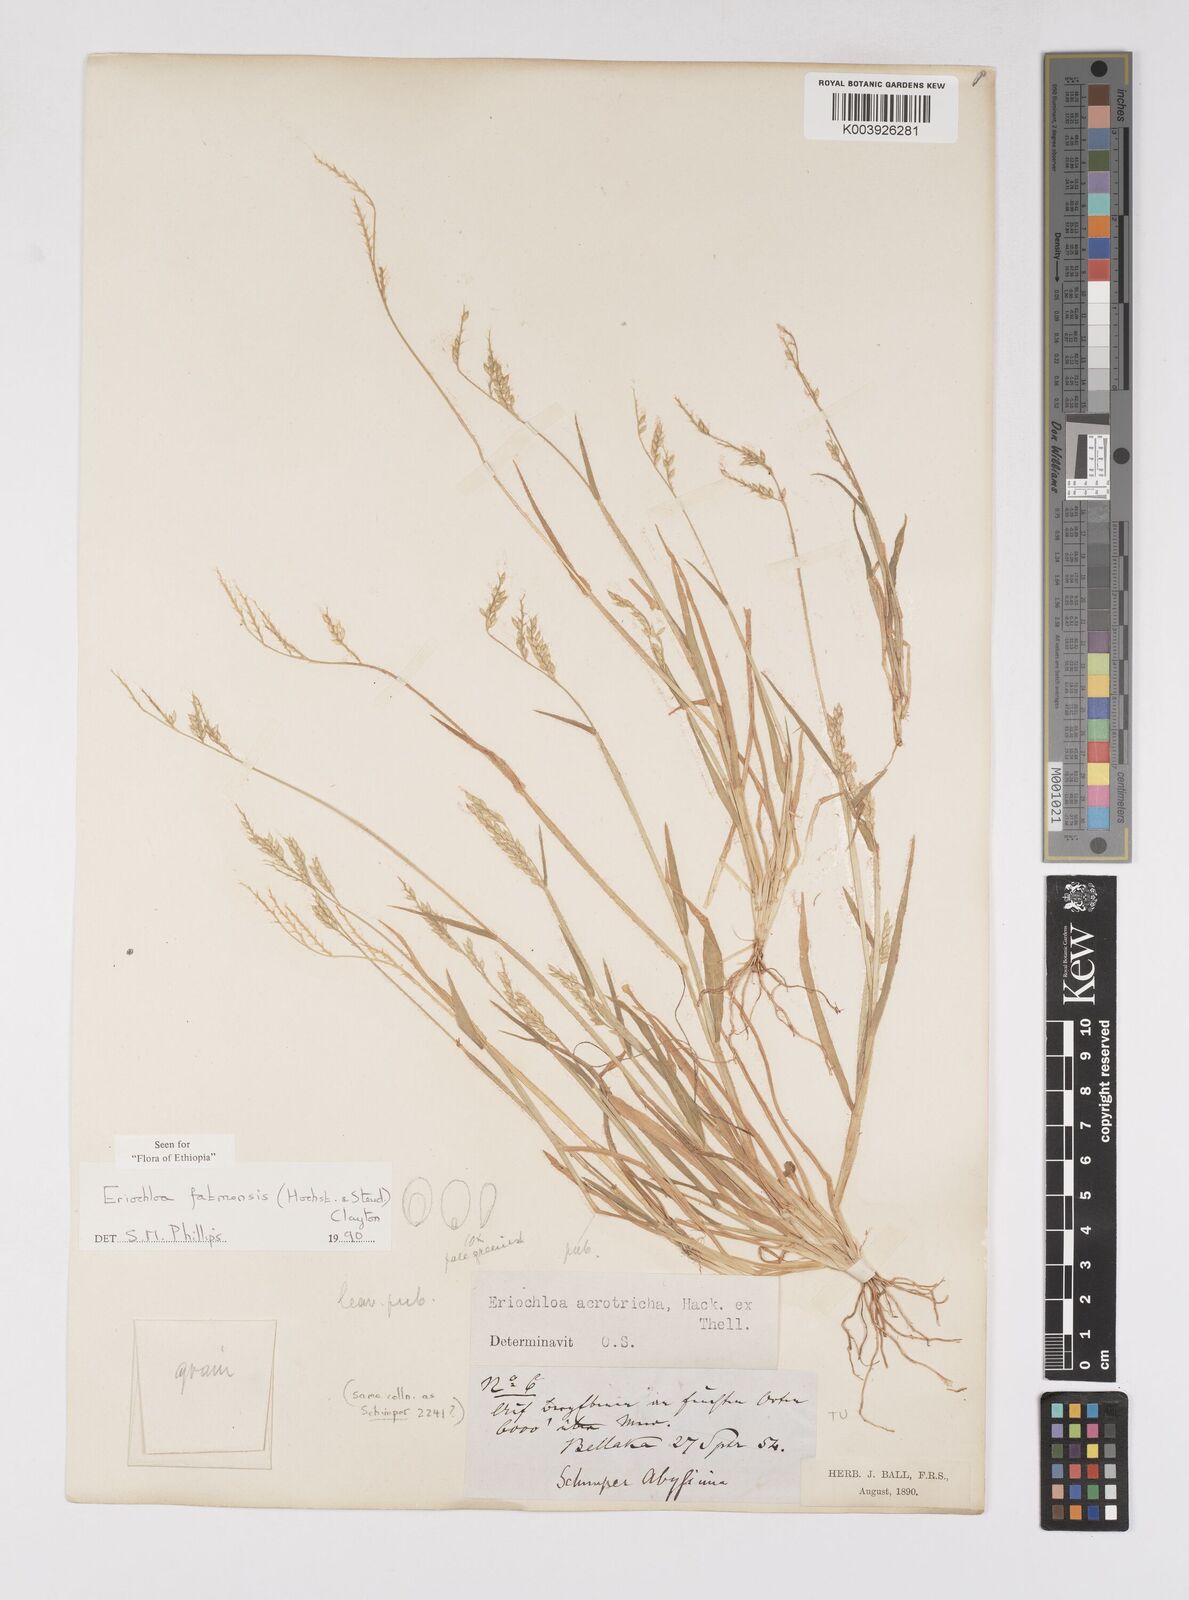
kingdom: Plantae
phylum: Tracheophyta
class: Liliopsida
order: Poales
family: Poaceae
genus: Eriochloa
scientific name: Eriochloa barbatus
